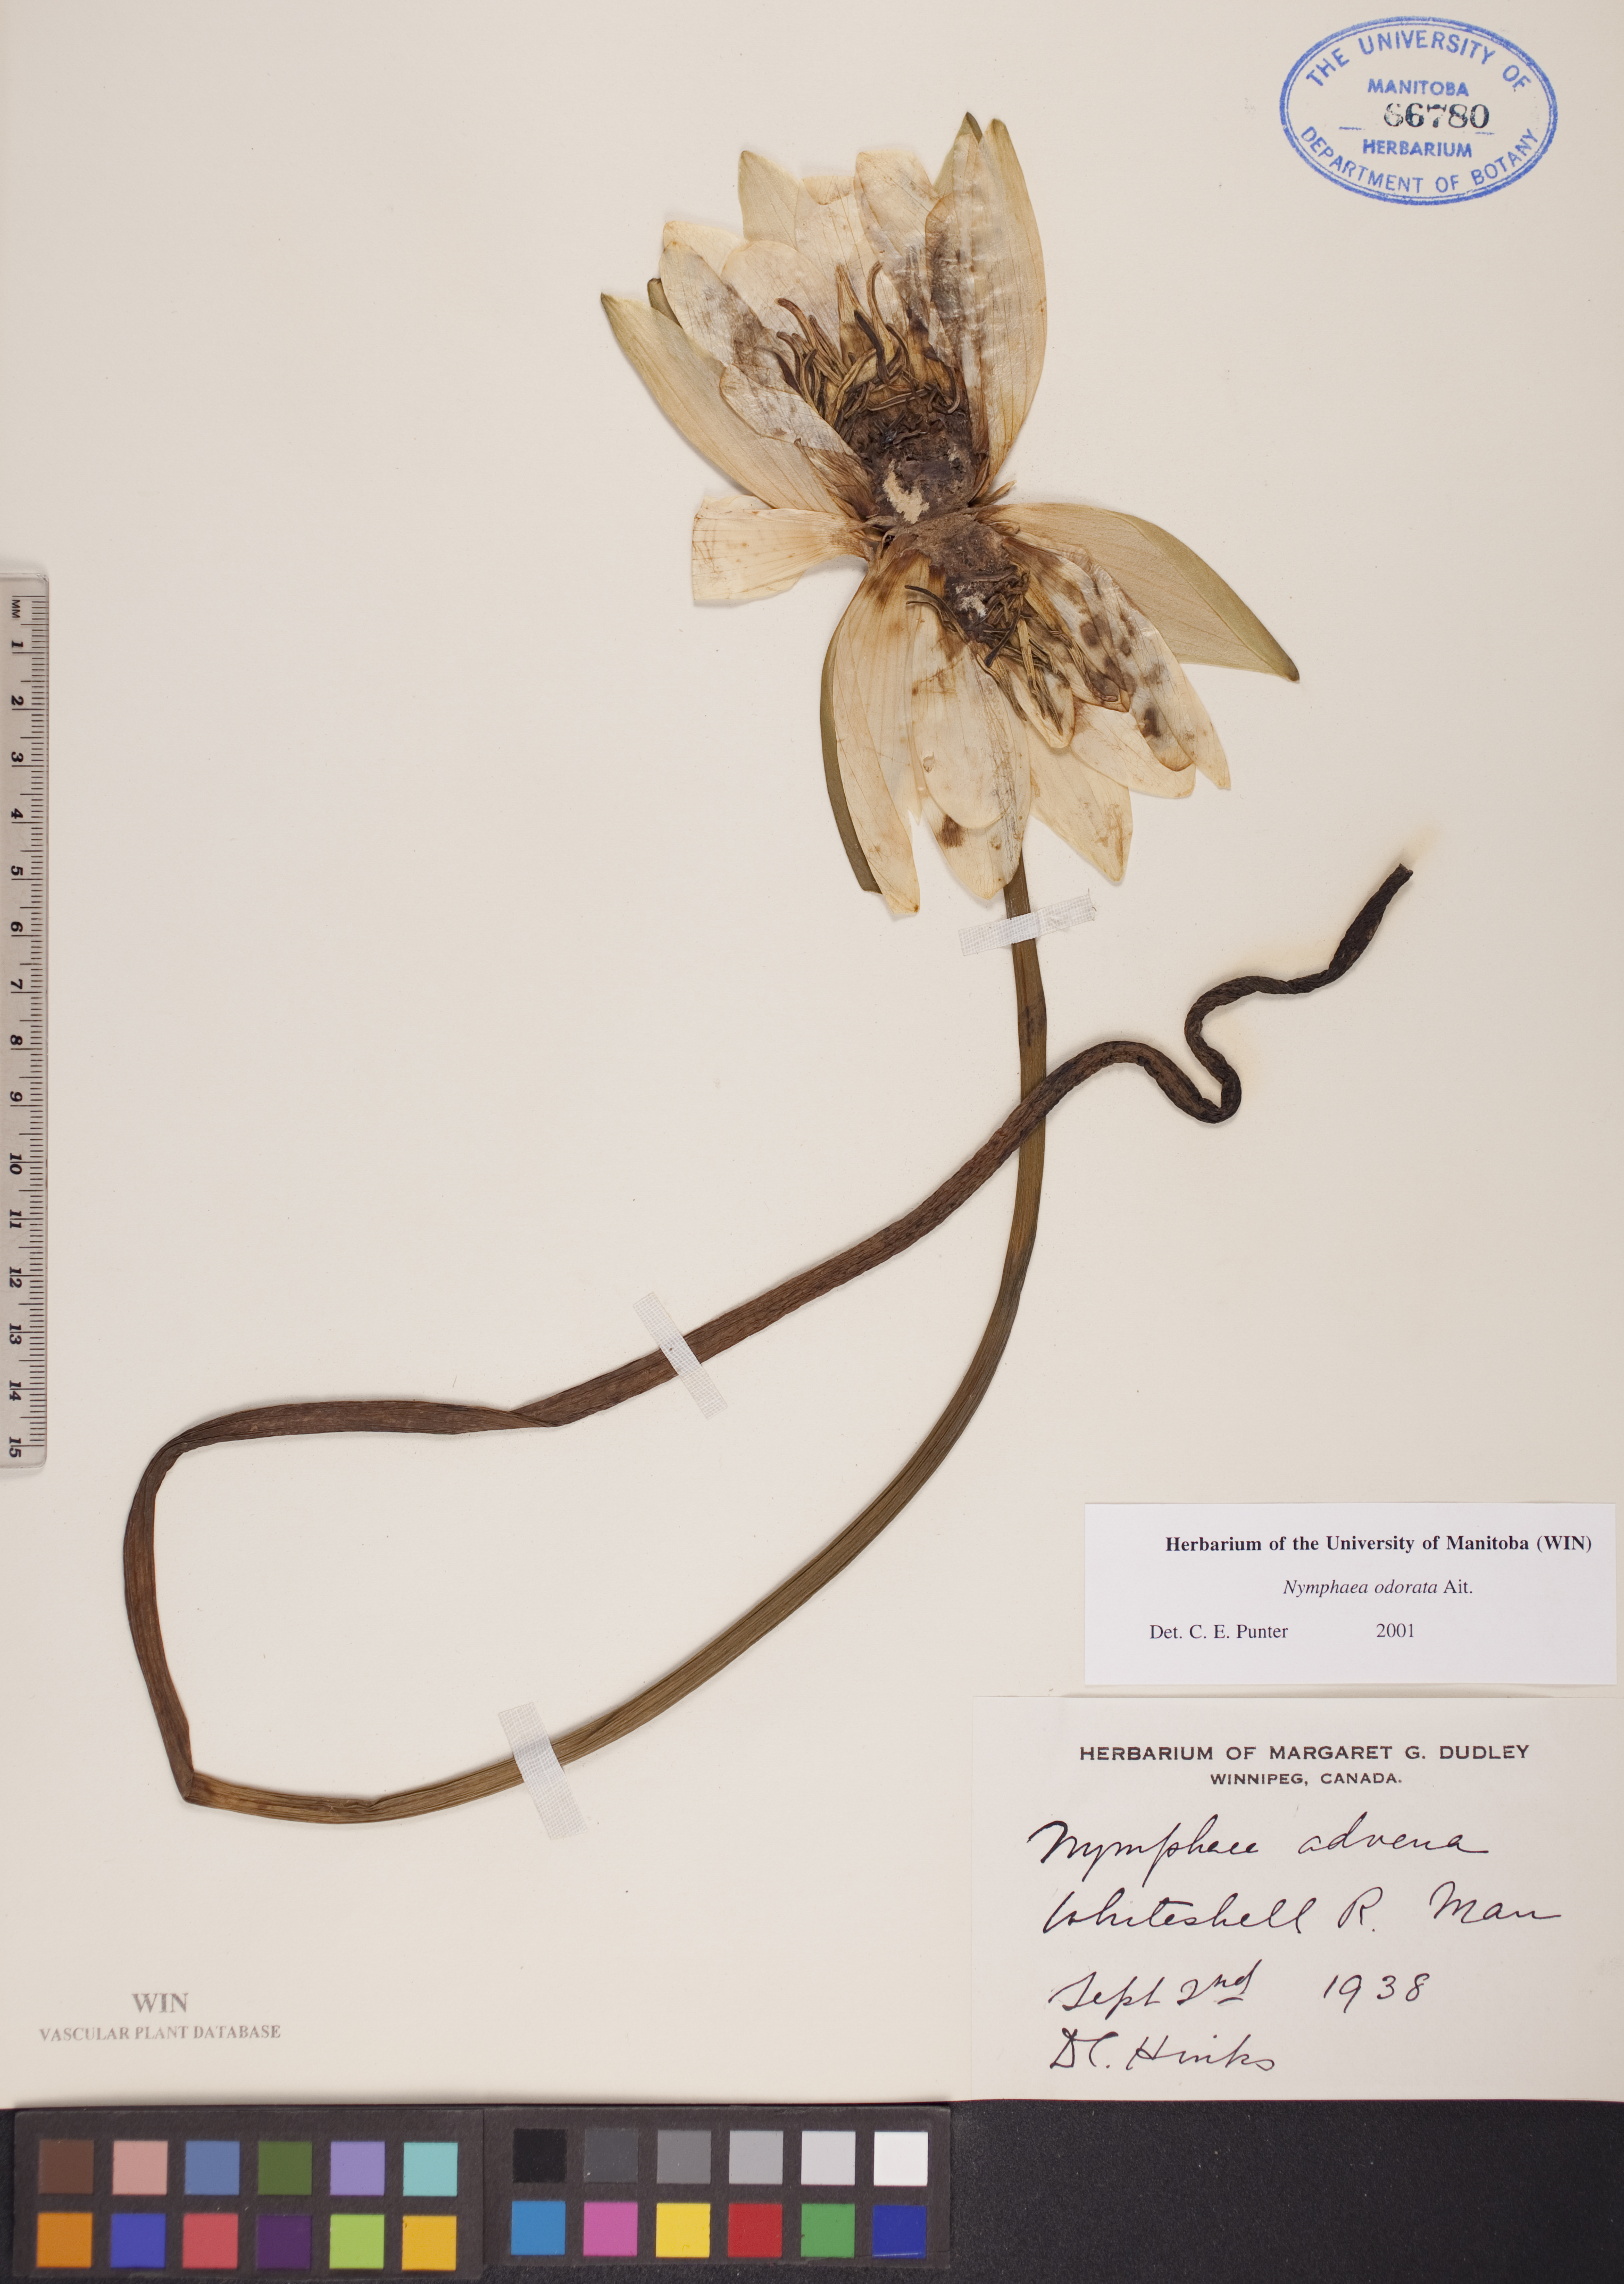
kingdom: Plantae
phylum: Tracheophyta
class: Magnoliopsida
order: Nymphaeales
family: Nymphaeaceae
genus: Nymphaea
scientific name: Nymphaea odorata
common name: Fragrant water-lily
